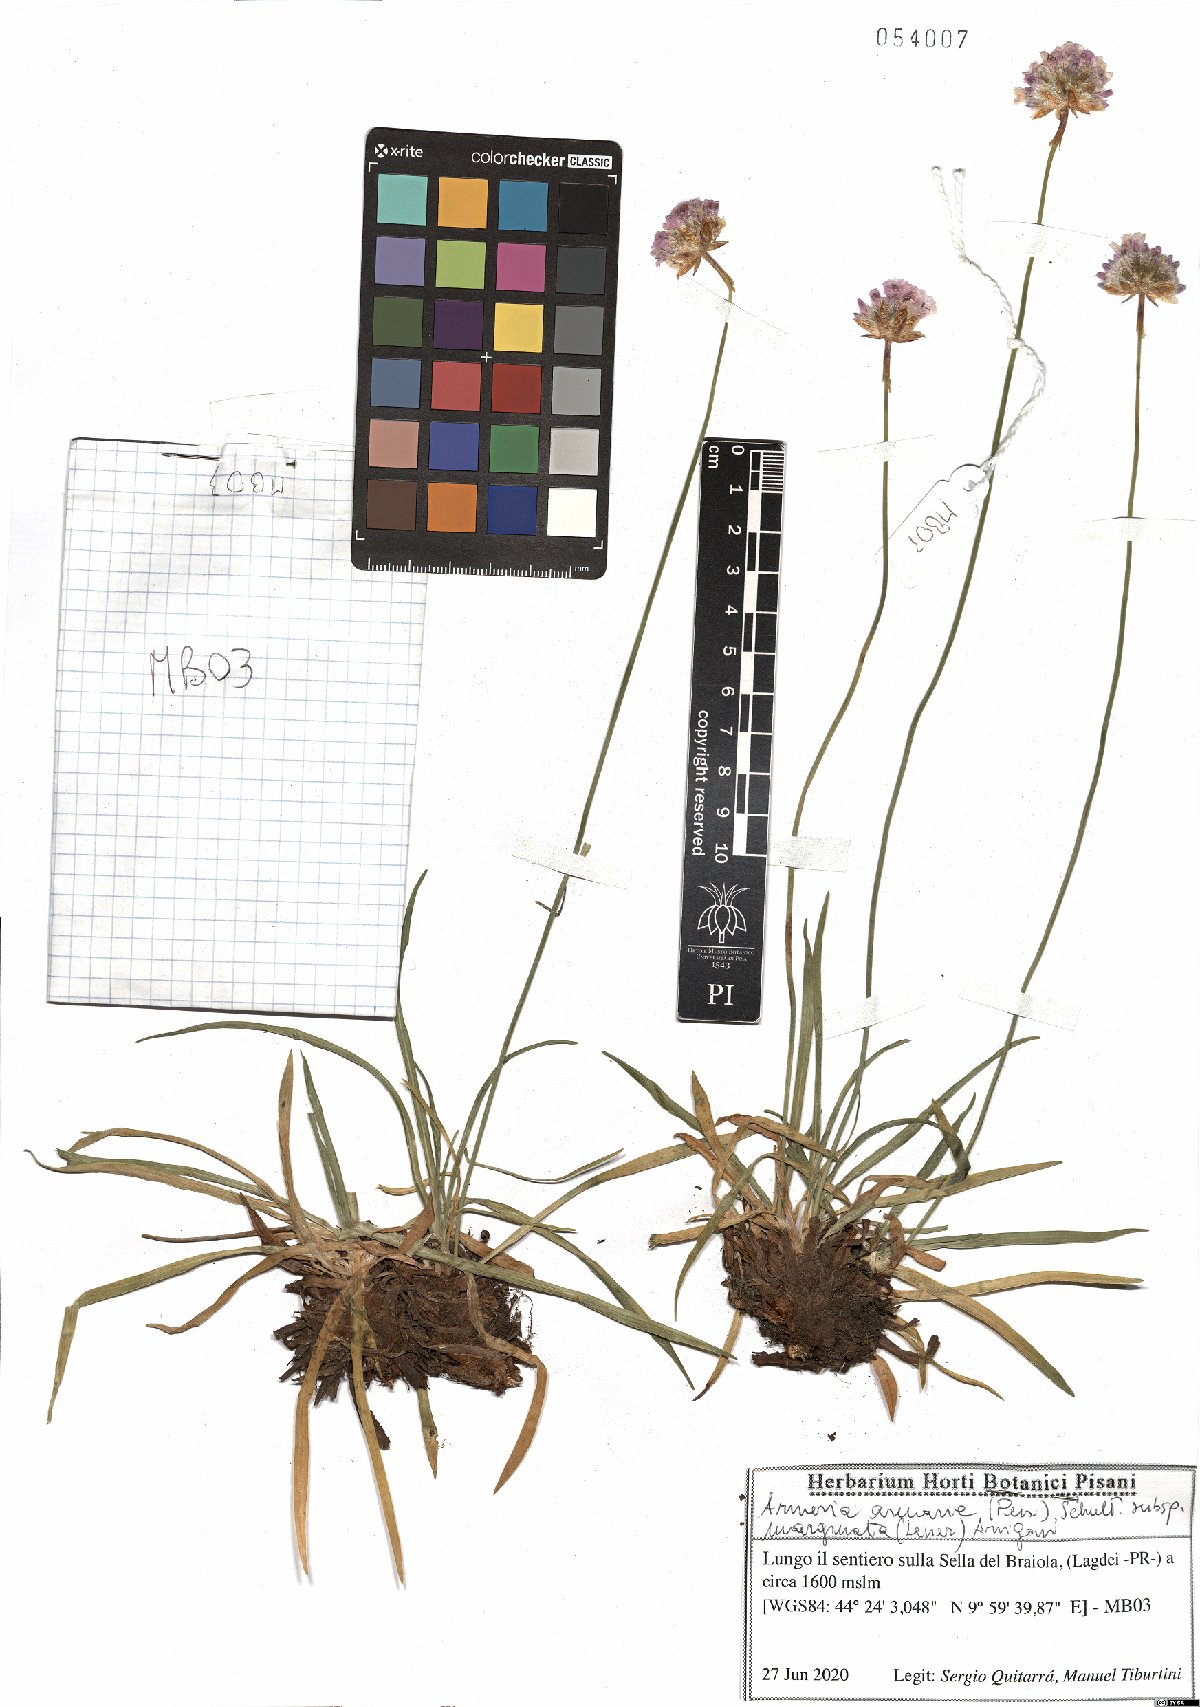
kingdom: Plantae
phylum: Tracheophyta
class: Magnoliopsida
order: Caryophyllales
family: Plumbaginaceae
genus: Armeria
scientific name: Armeria arenaria
